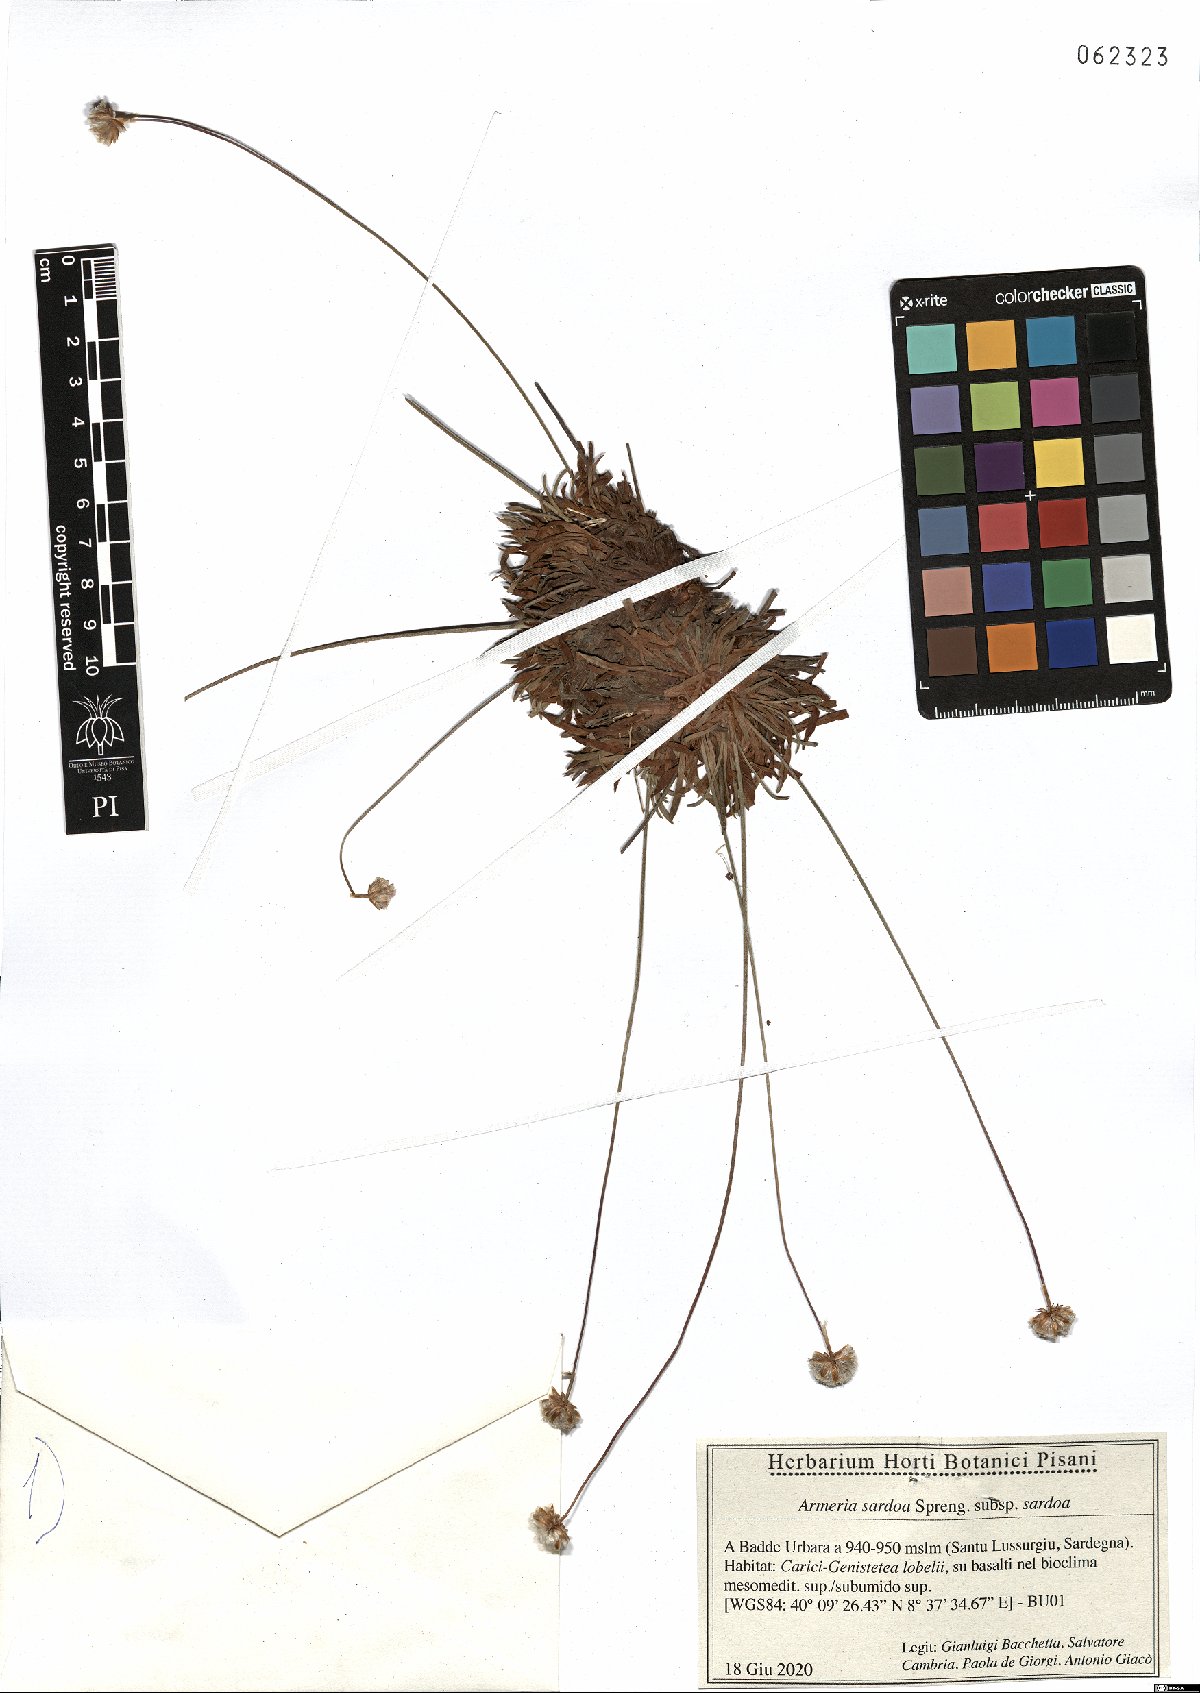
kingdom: Plantae
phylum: Tracheophyta
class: Magnoliopsida
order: Caryophyllales
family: Plumbaginaceae
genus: Armeria
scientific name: Armeria sardoa
